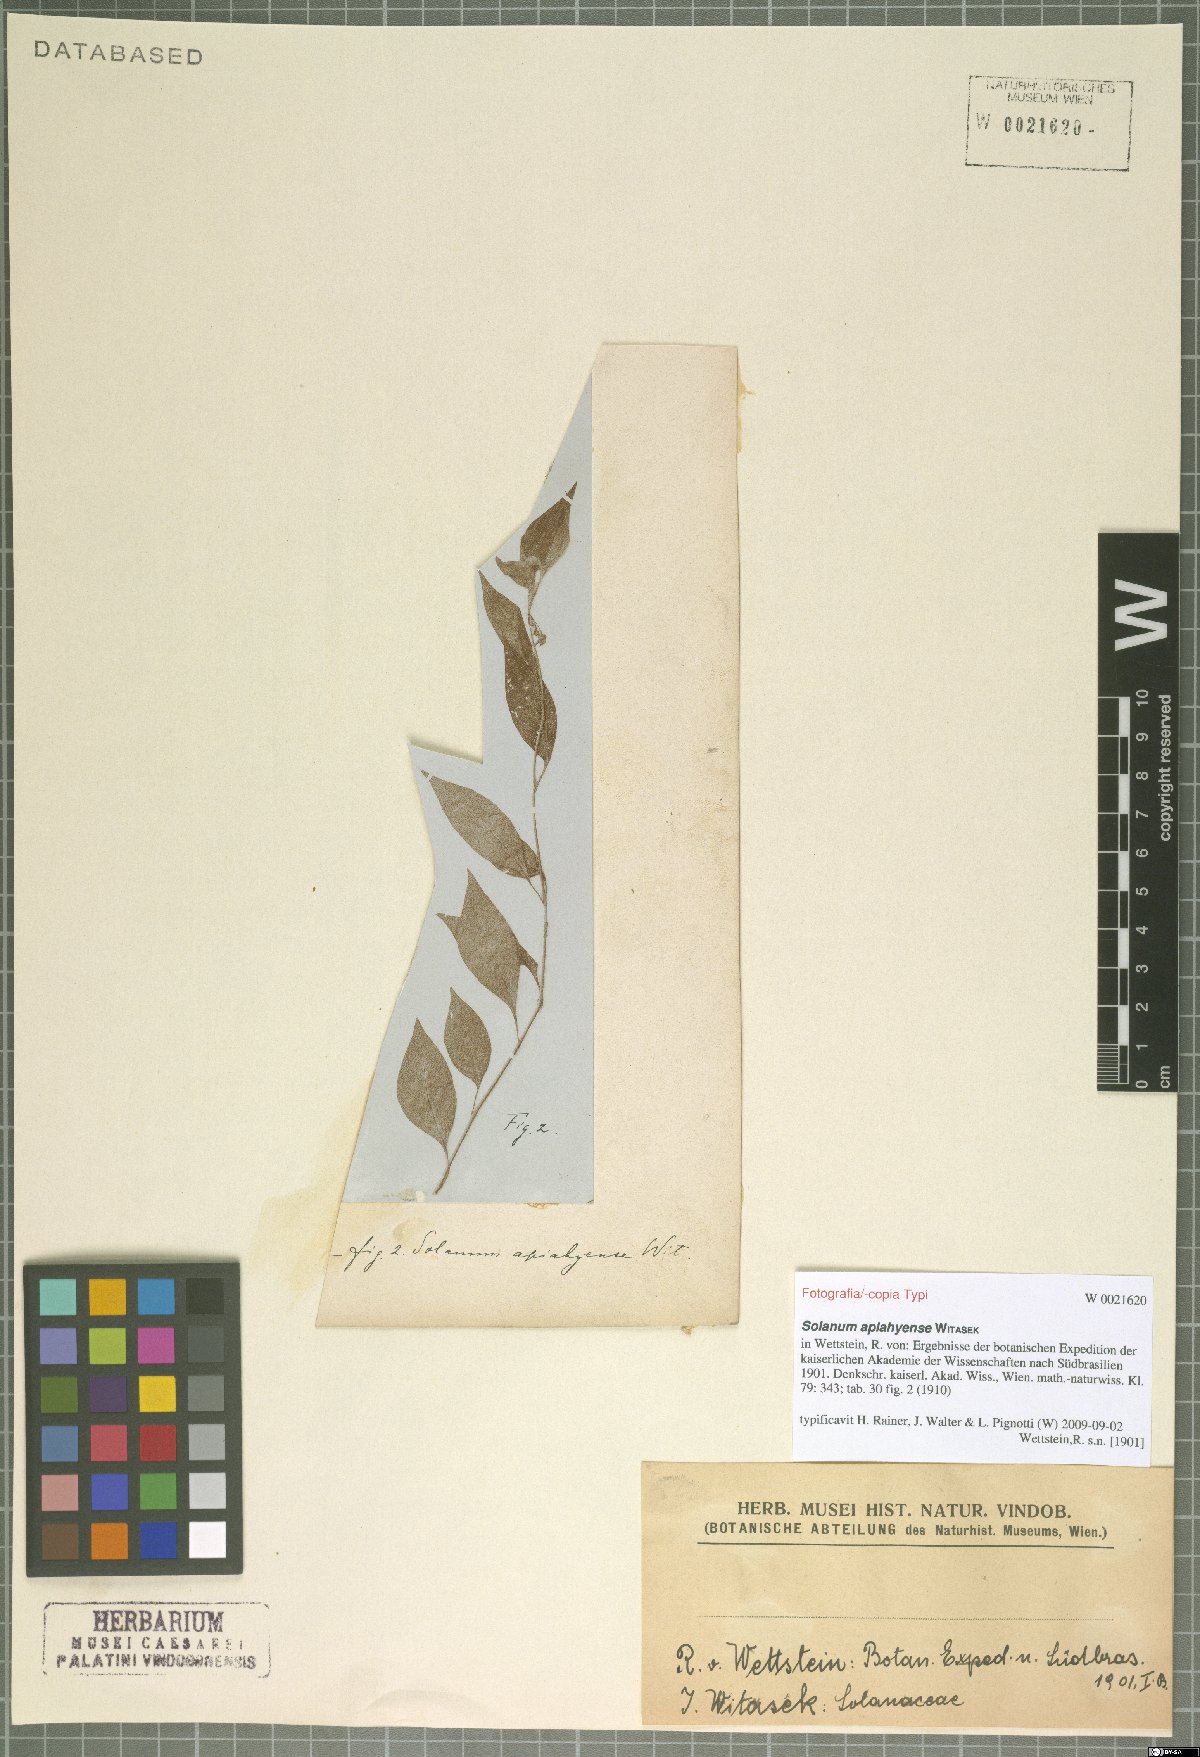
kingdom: Plantae
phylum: Tracheophyta
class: Magnoliopsida
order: Solanales
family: Solanaceae
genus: Solanum
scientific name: Solanum apiahyense
